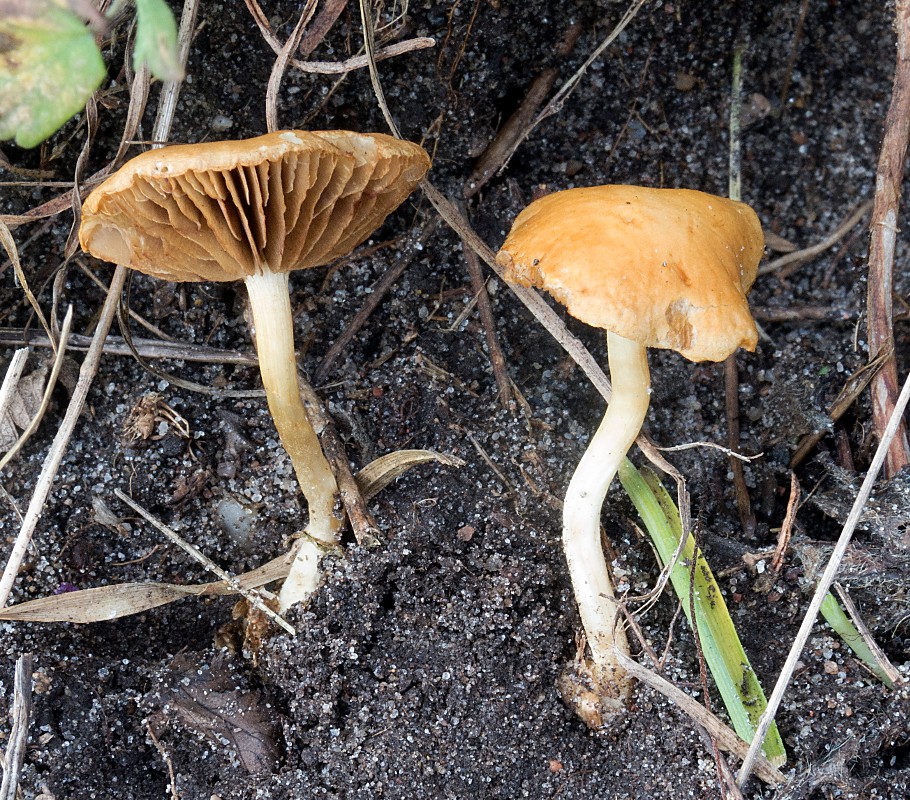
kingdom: Fungi
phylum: Basidiomycota
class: Agaricomycetes
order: Agaricales
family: Strophariaceae
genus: Agrocybe
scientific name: Agrocybe vervacti
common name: lav agerhat
